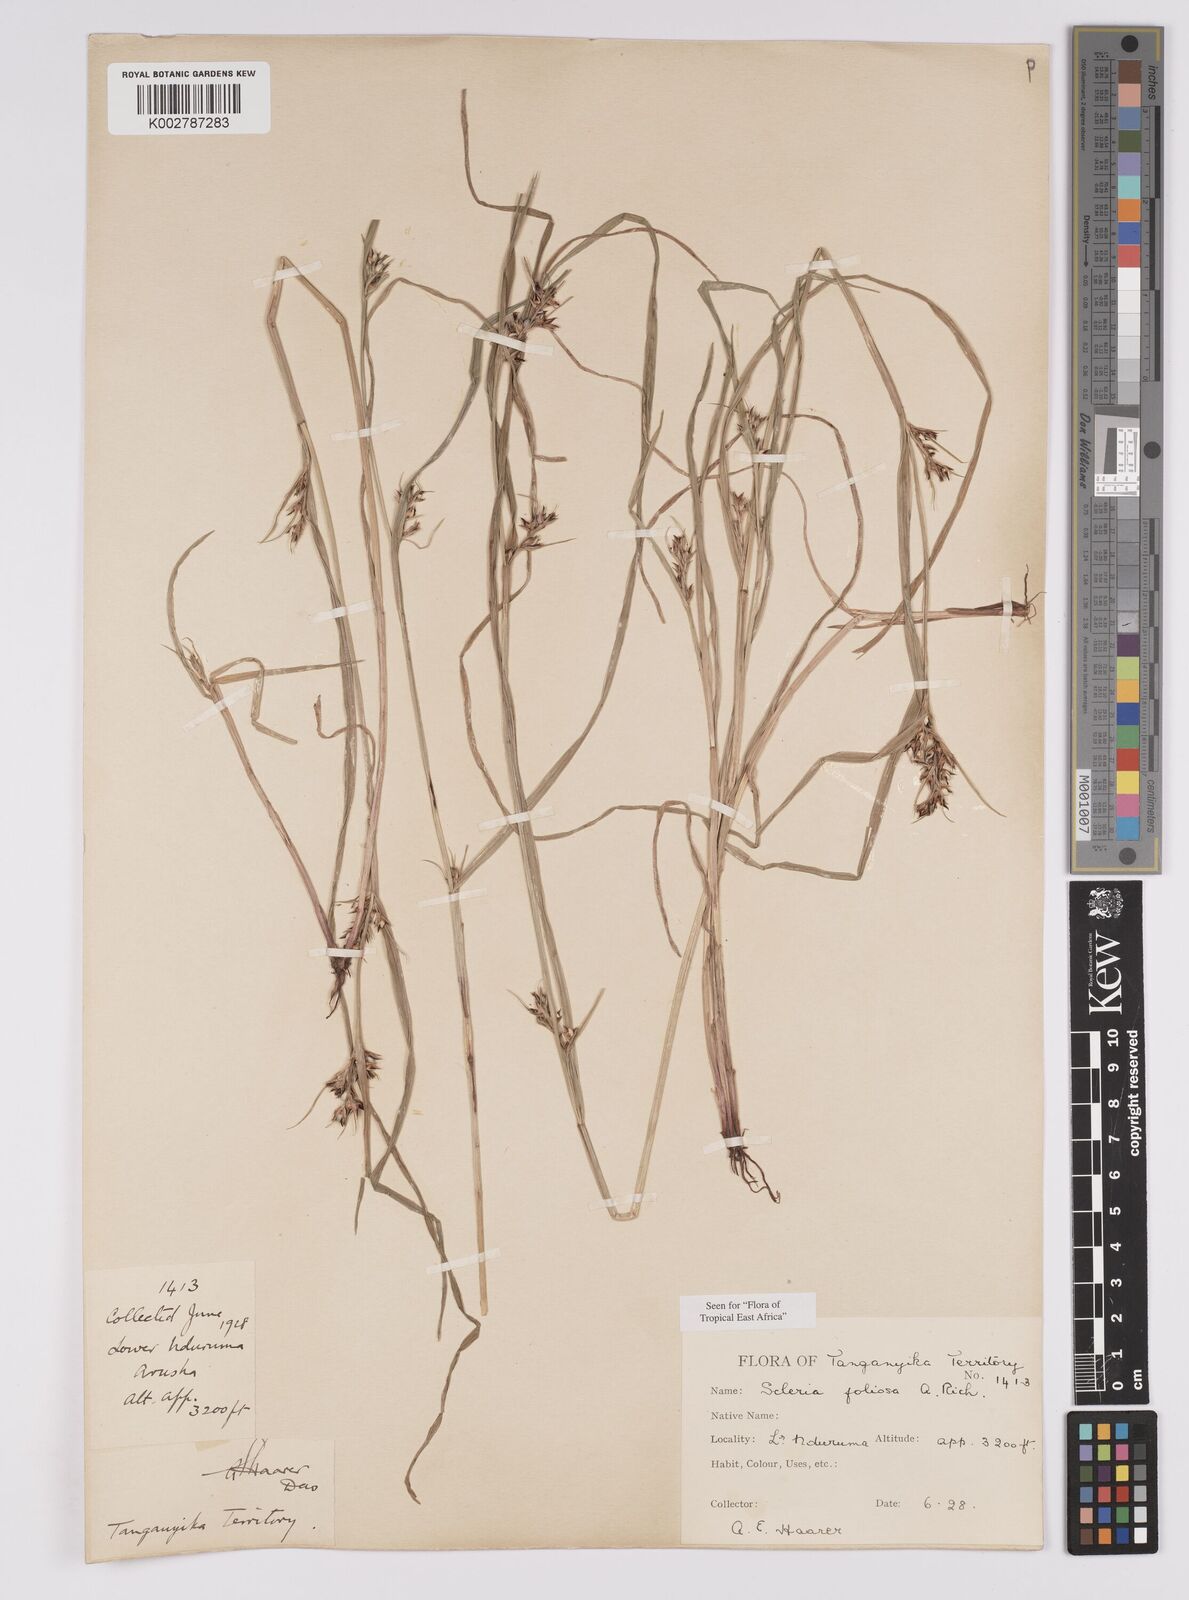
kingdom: Plantae
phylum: Tracheophyta
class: Liliopsida
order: Poales
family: Cyperaceae
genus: Scleria
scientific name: Scleria foliosa
